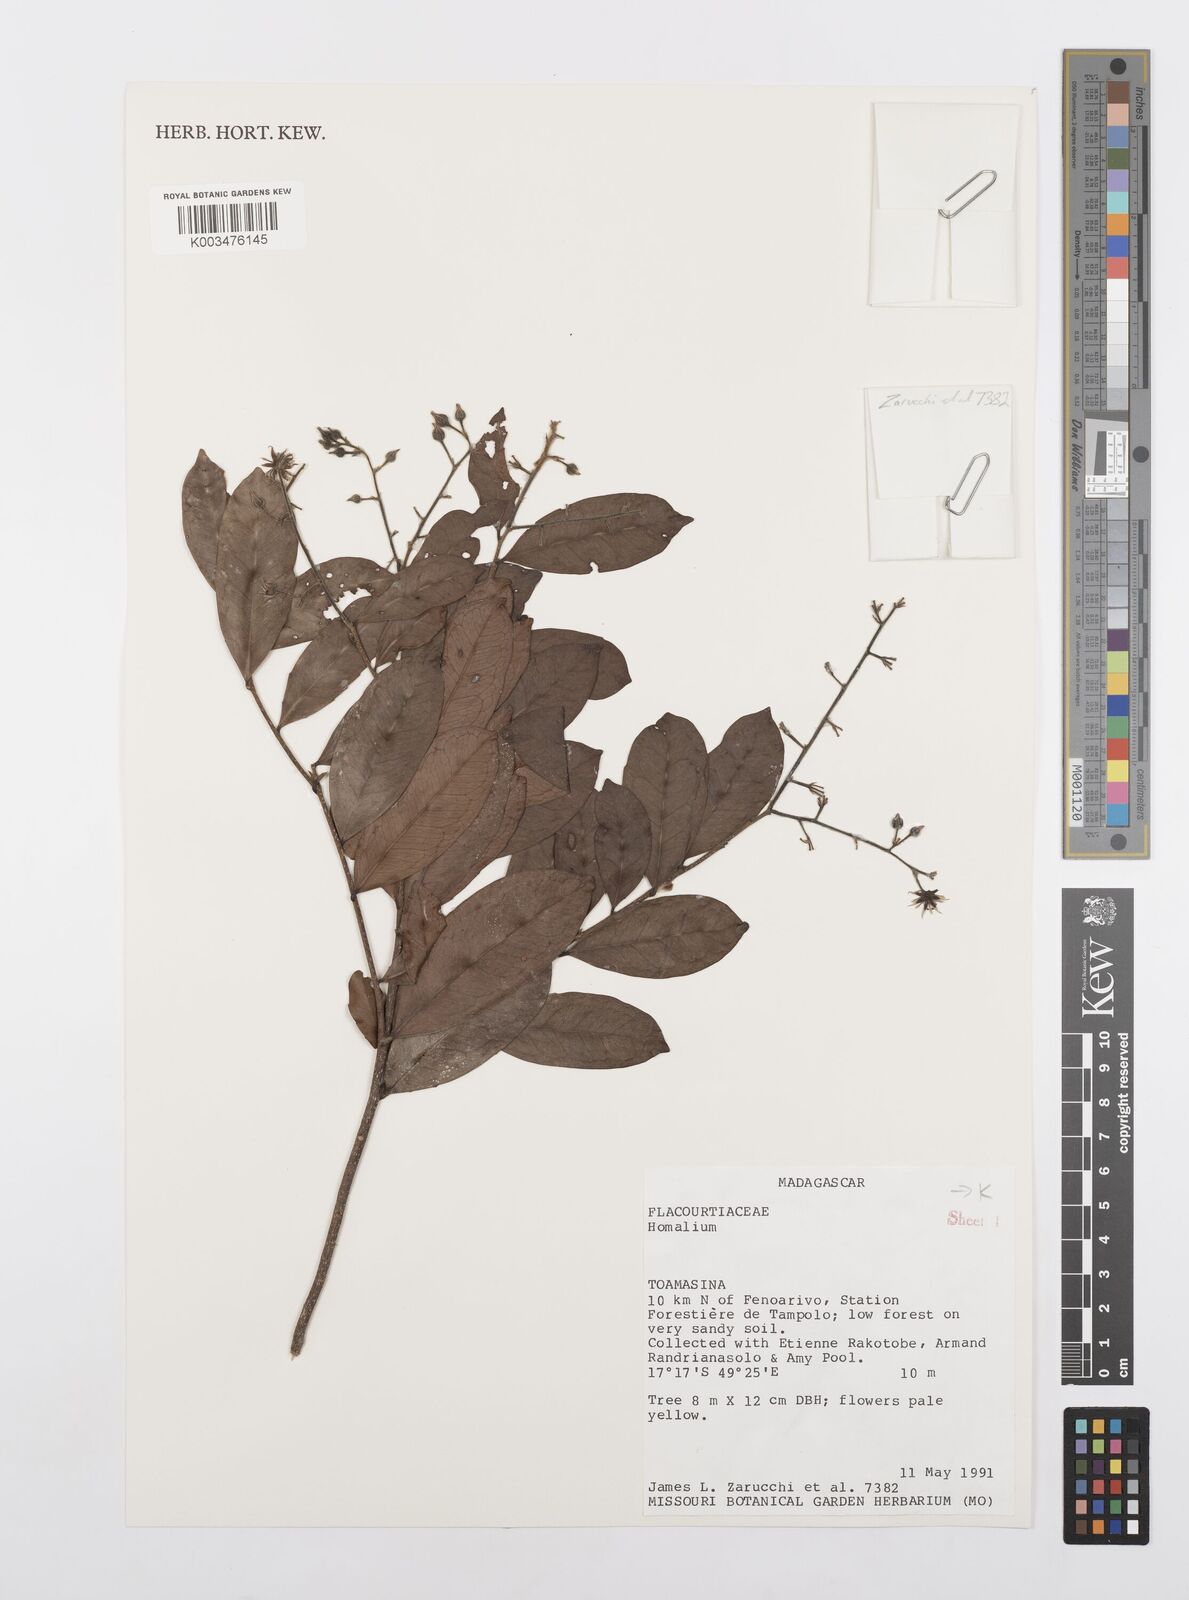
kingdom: Plantae
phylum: Tracheophyta
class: Magnoliopsida
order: Malpighiales
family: Salicaceae
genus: Homalium
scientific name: Homalium
